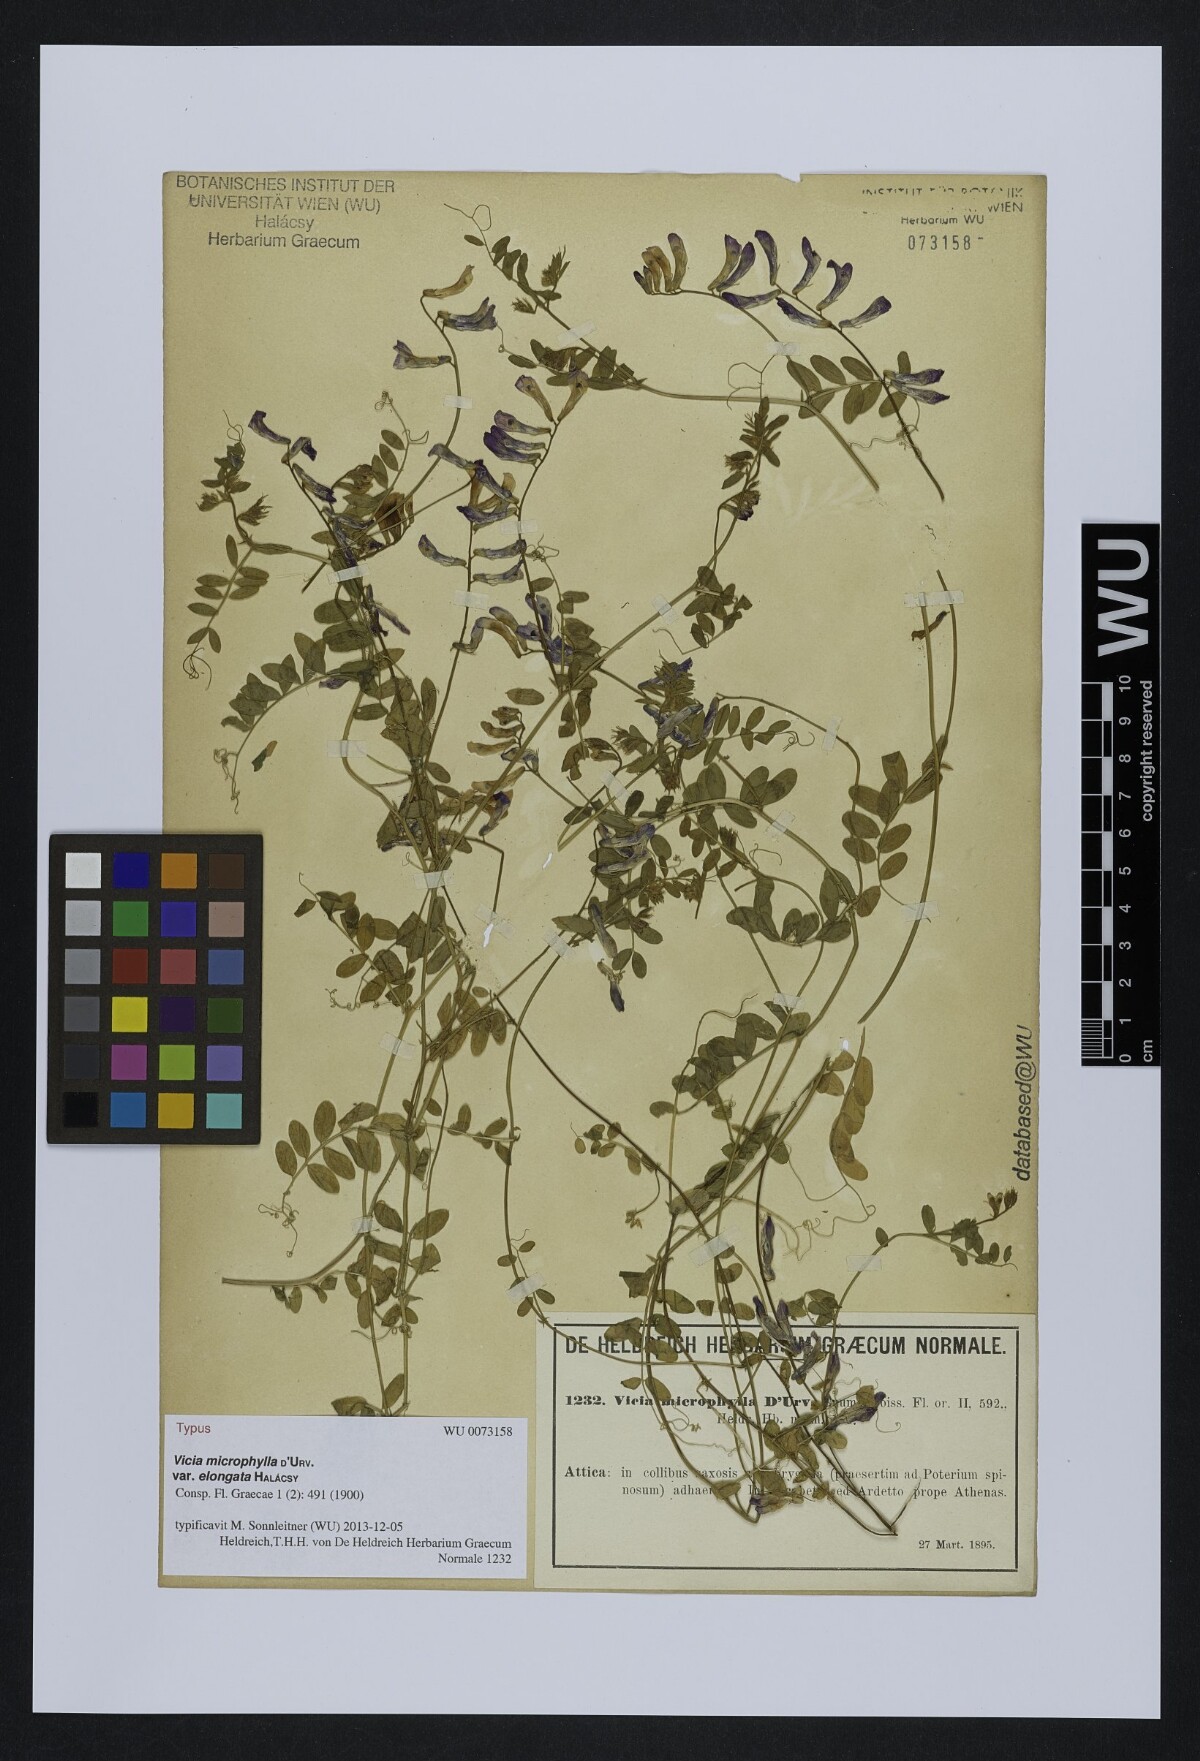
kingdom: Plantae
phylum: Tracheophyta
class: Magnoliopsida
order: Fabales
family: Fabaceae
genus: Vicia
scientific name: Vicia villosa
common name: Fodder vetch
